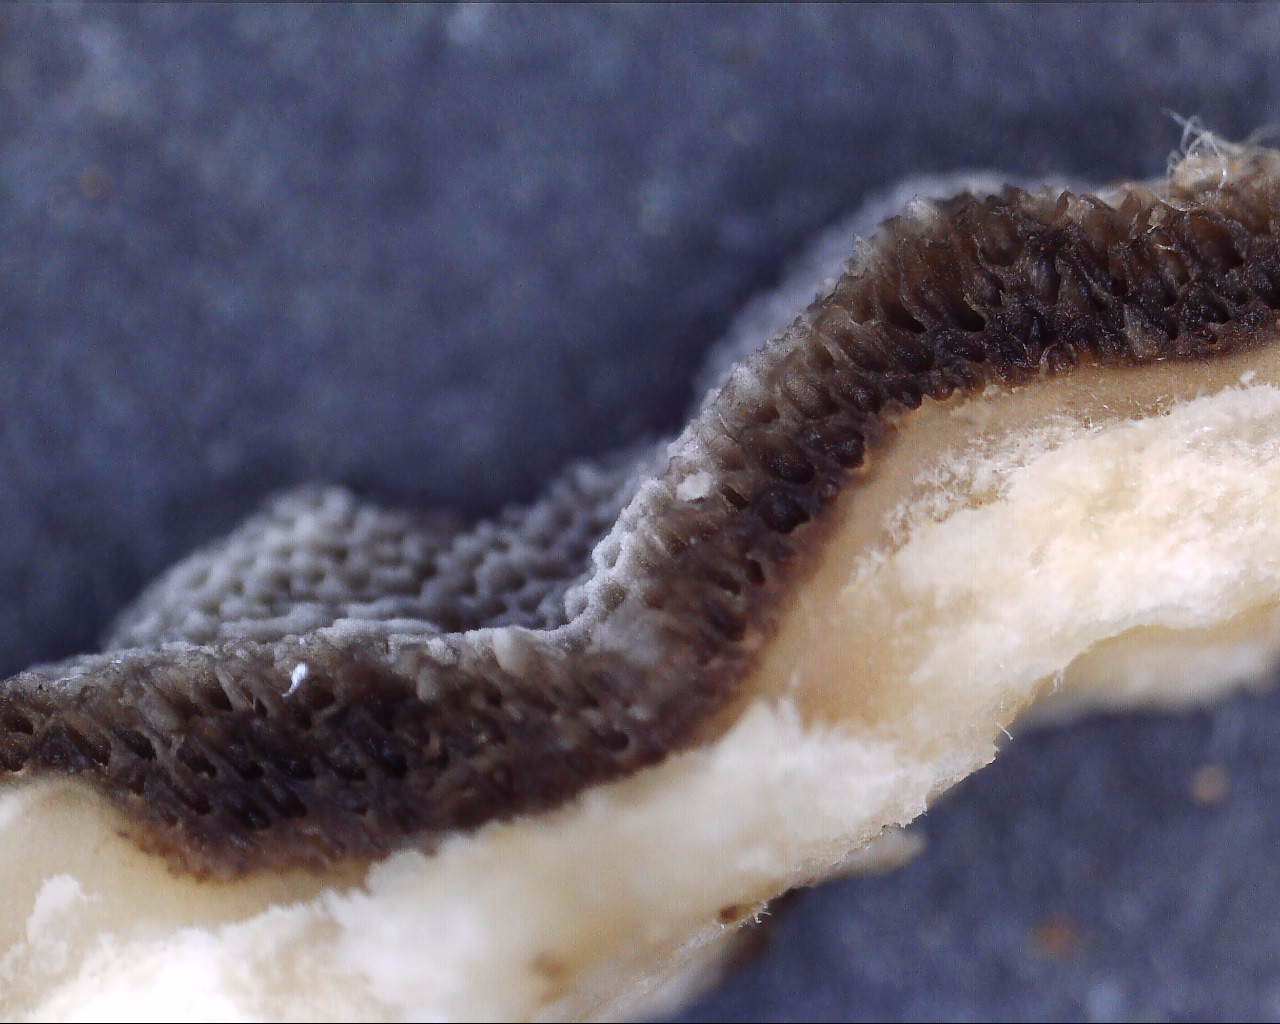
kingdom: Fungi
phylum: Basidiomycota
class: Agaricomycetes
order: Polyporales
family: Phanerochaetaceae
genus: Bjerkandera
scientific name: Bjerkandera adusta
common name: sveden sodporesvamp
